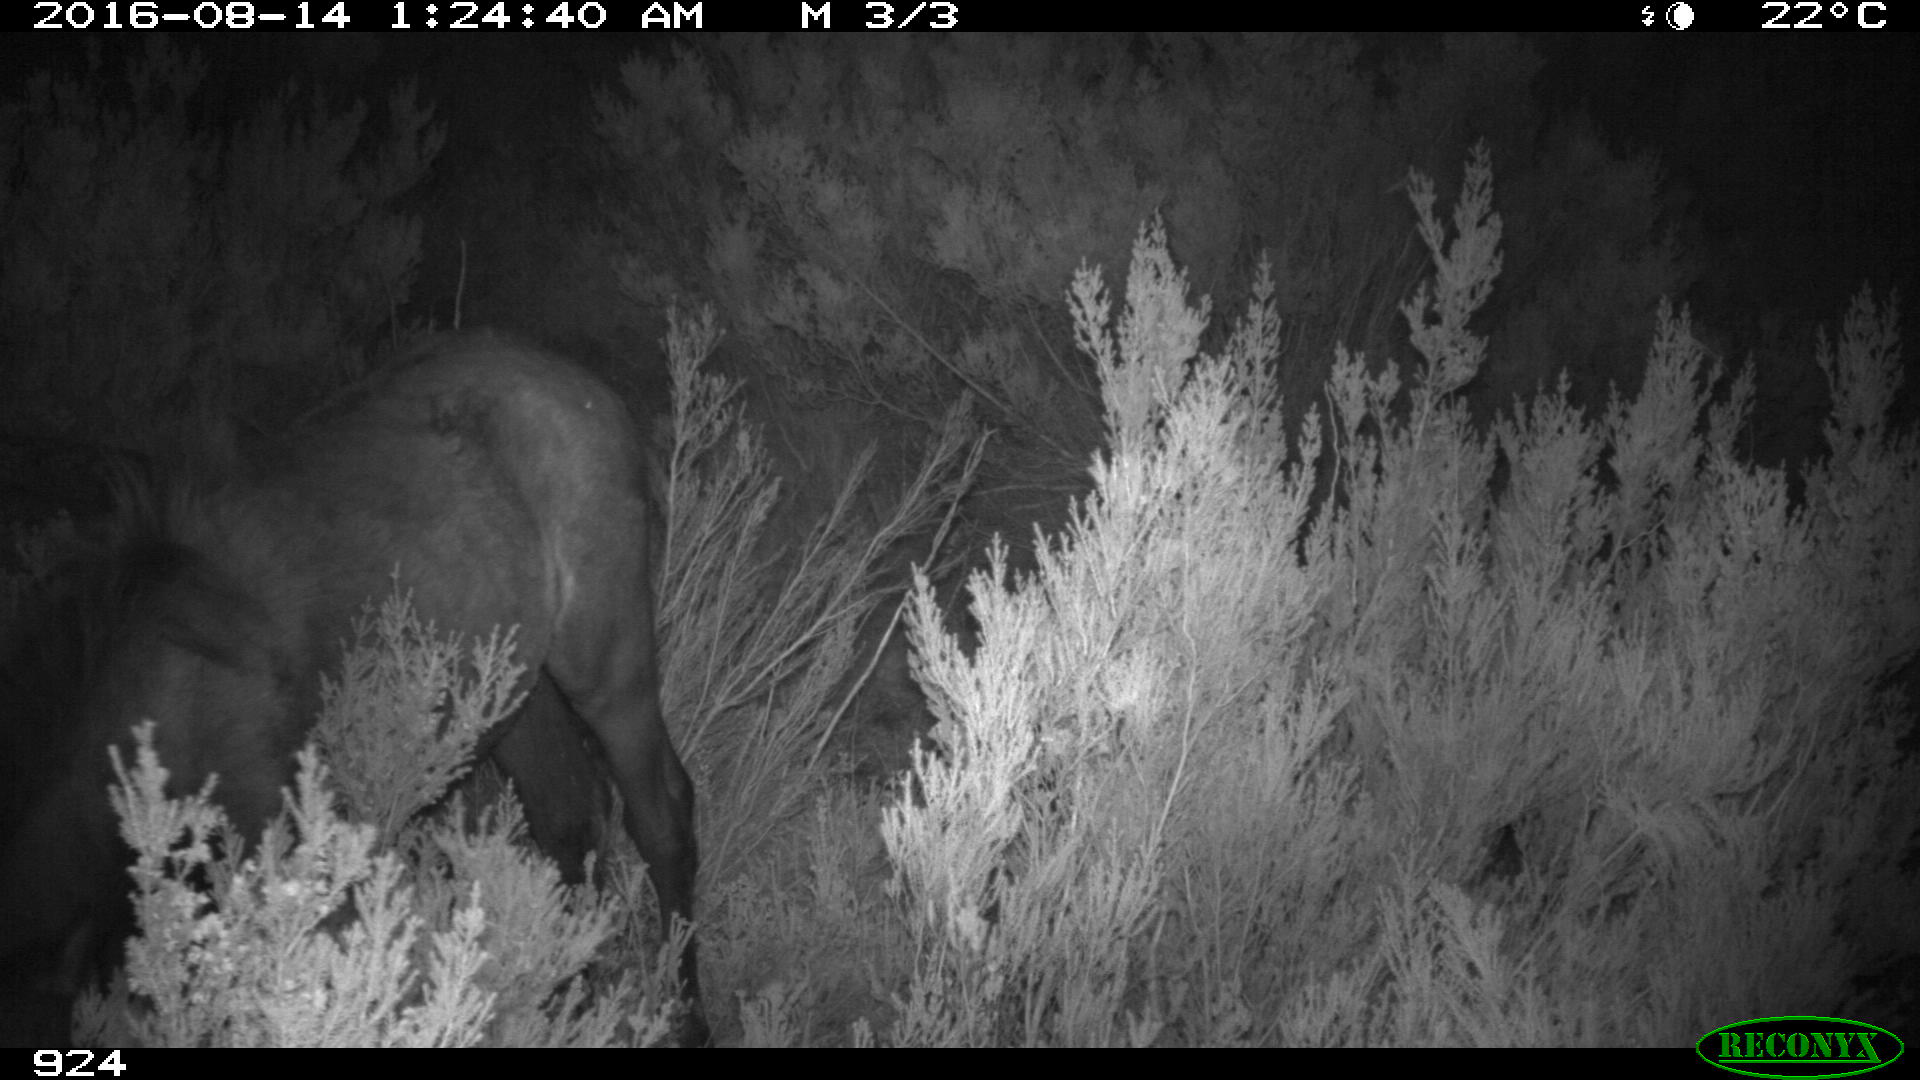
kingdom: Animalia
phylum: Chordata
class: Mammalia
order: Perissodactyla
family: Equidae
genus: Equus
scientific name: Equus caballus
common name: Horse
